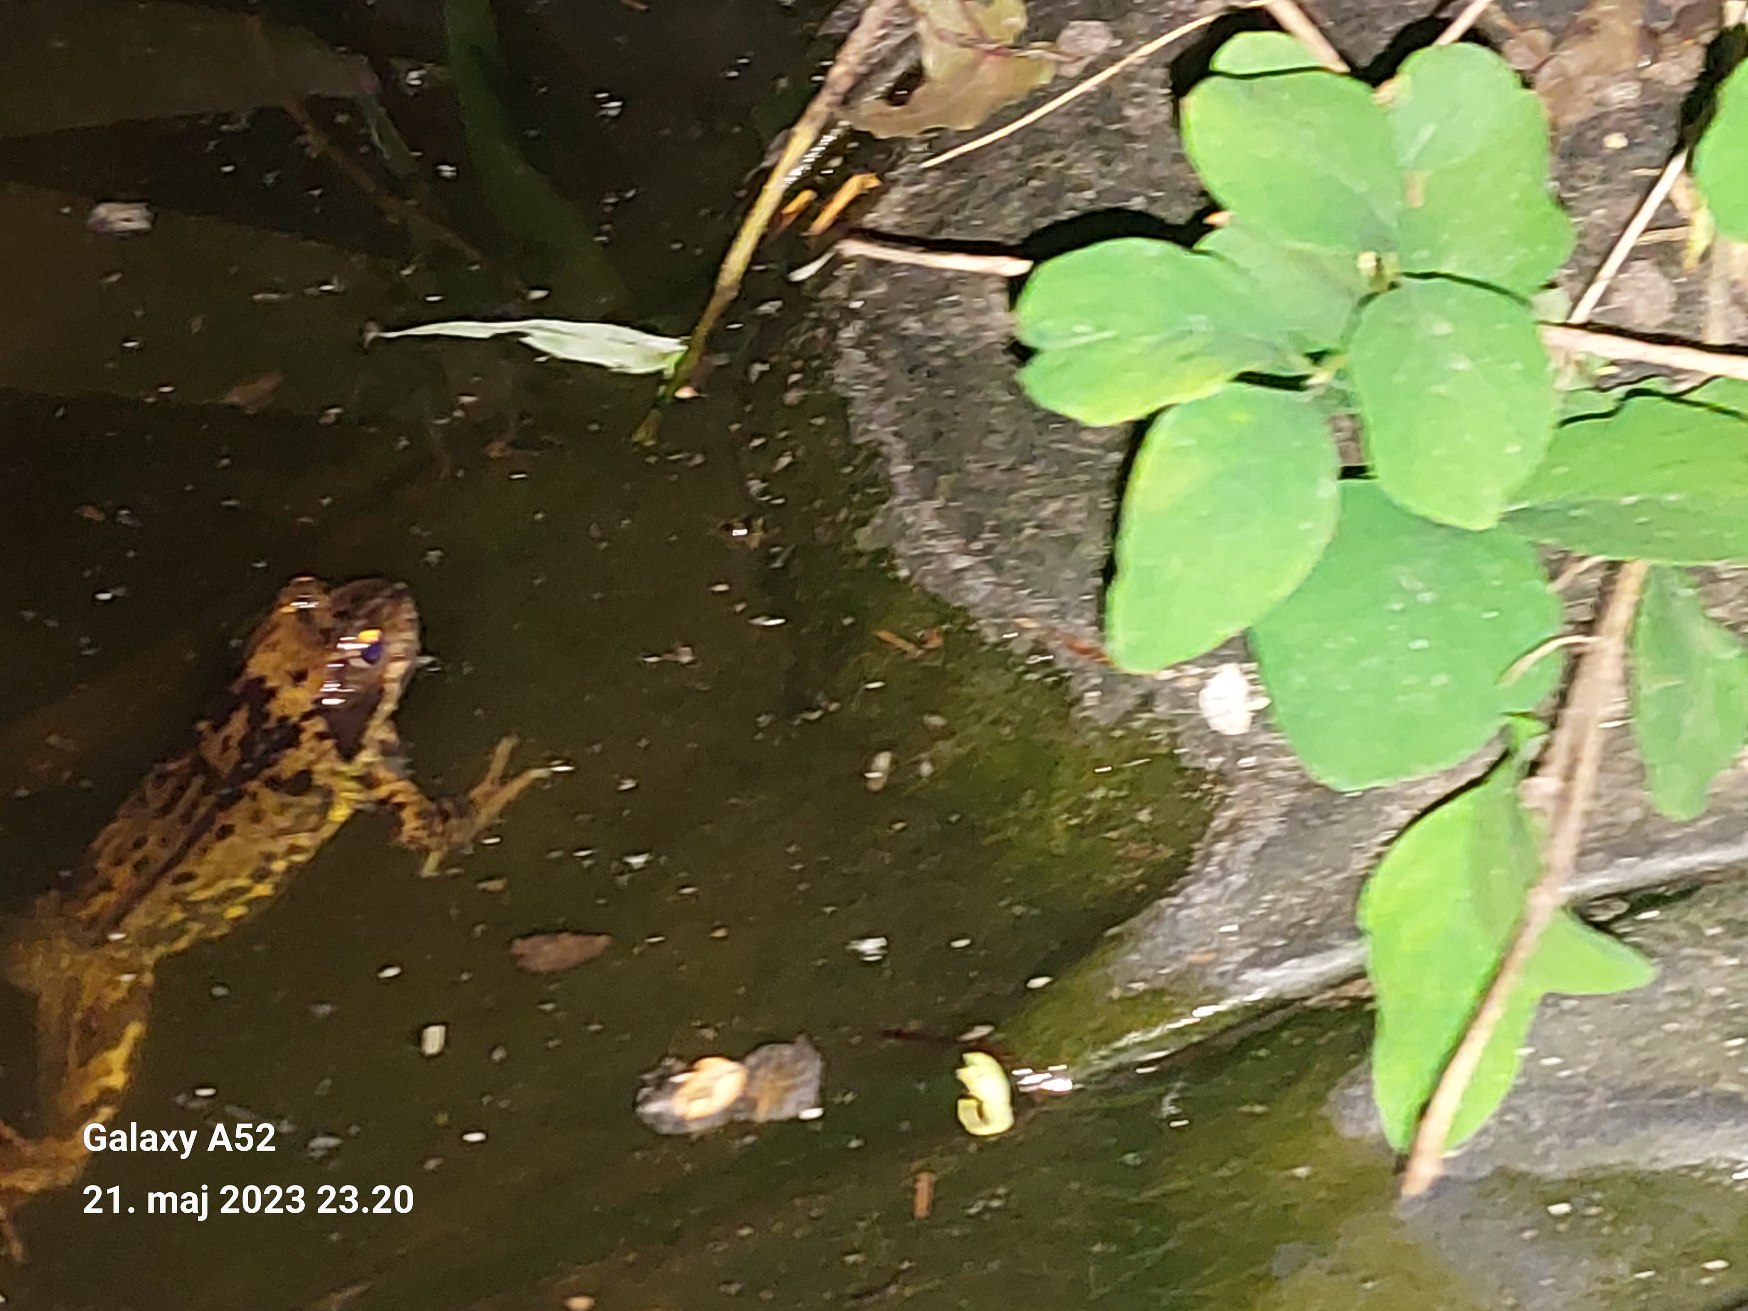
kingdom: Animalia
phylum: Chordata
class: Amphibia
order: Anura
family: Ranidae
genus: Rana
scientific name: Rana temporaria
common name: Butsnudet frø
